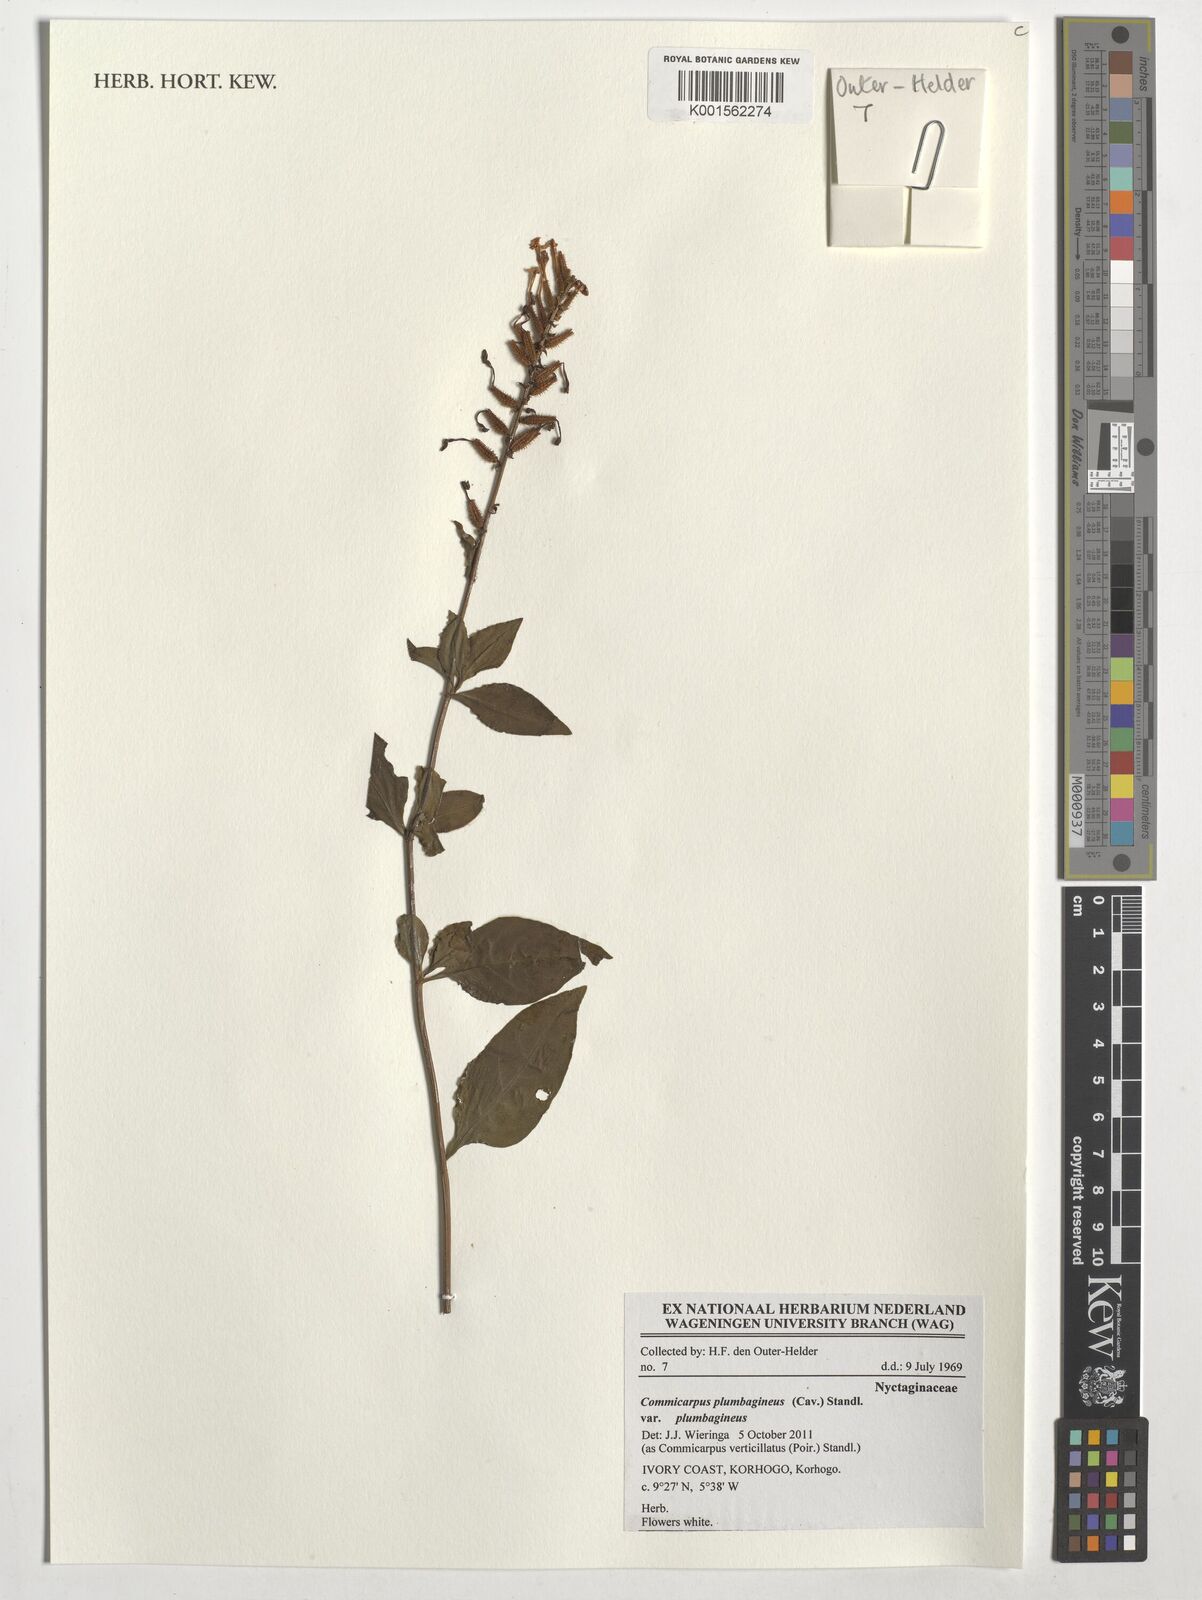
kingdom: Plantae
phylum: Tracheophyta
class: Magnoliopsida
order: Caryophyllales
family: Nyctaginaceae
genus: Commicarpus
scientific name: Commicarpus plumbagineus
